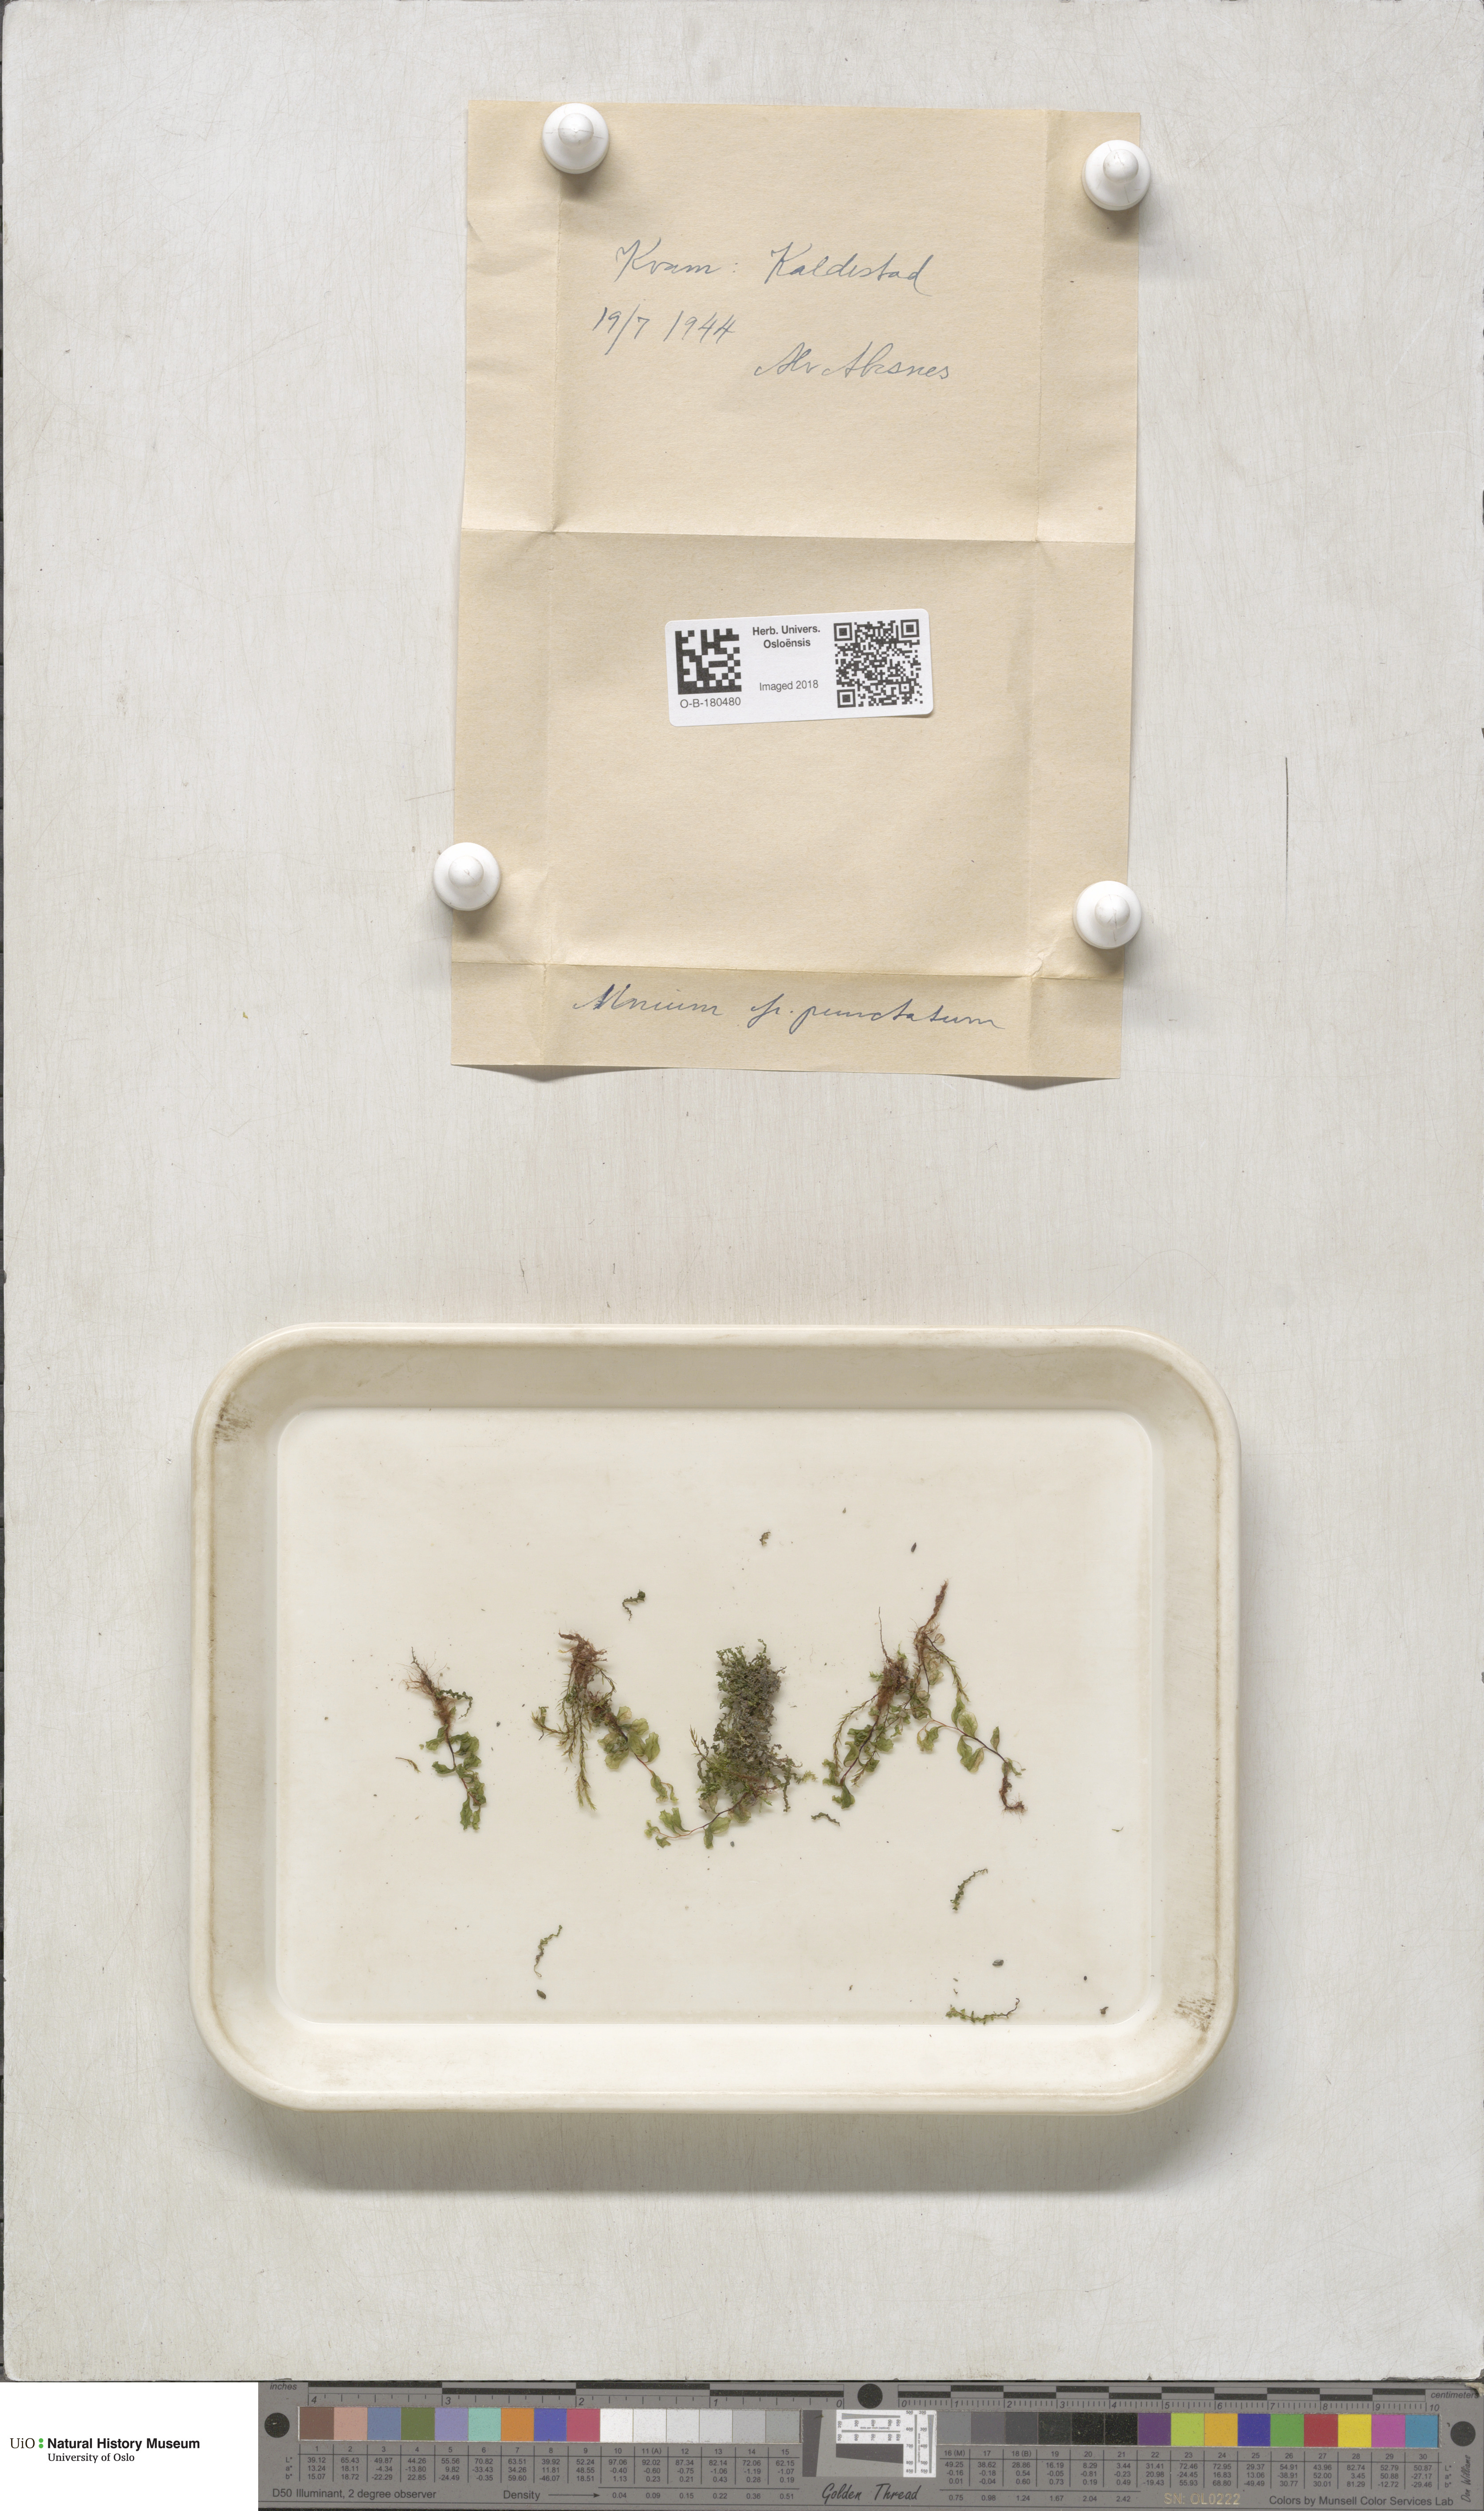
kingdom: Plantae
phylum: Bryophyta
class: Bryopsida
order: Bryales
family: Mniaceae
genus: Rhizomnium
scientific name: Rhizomnium punctatum
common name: Dotted leafy moss
